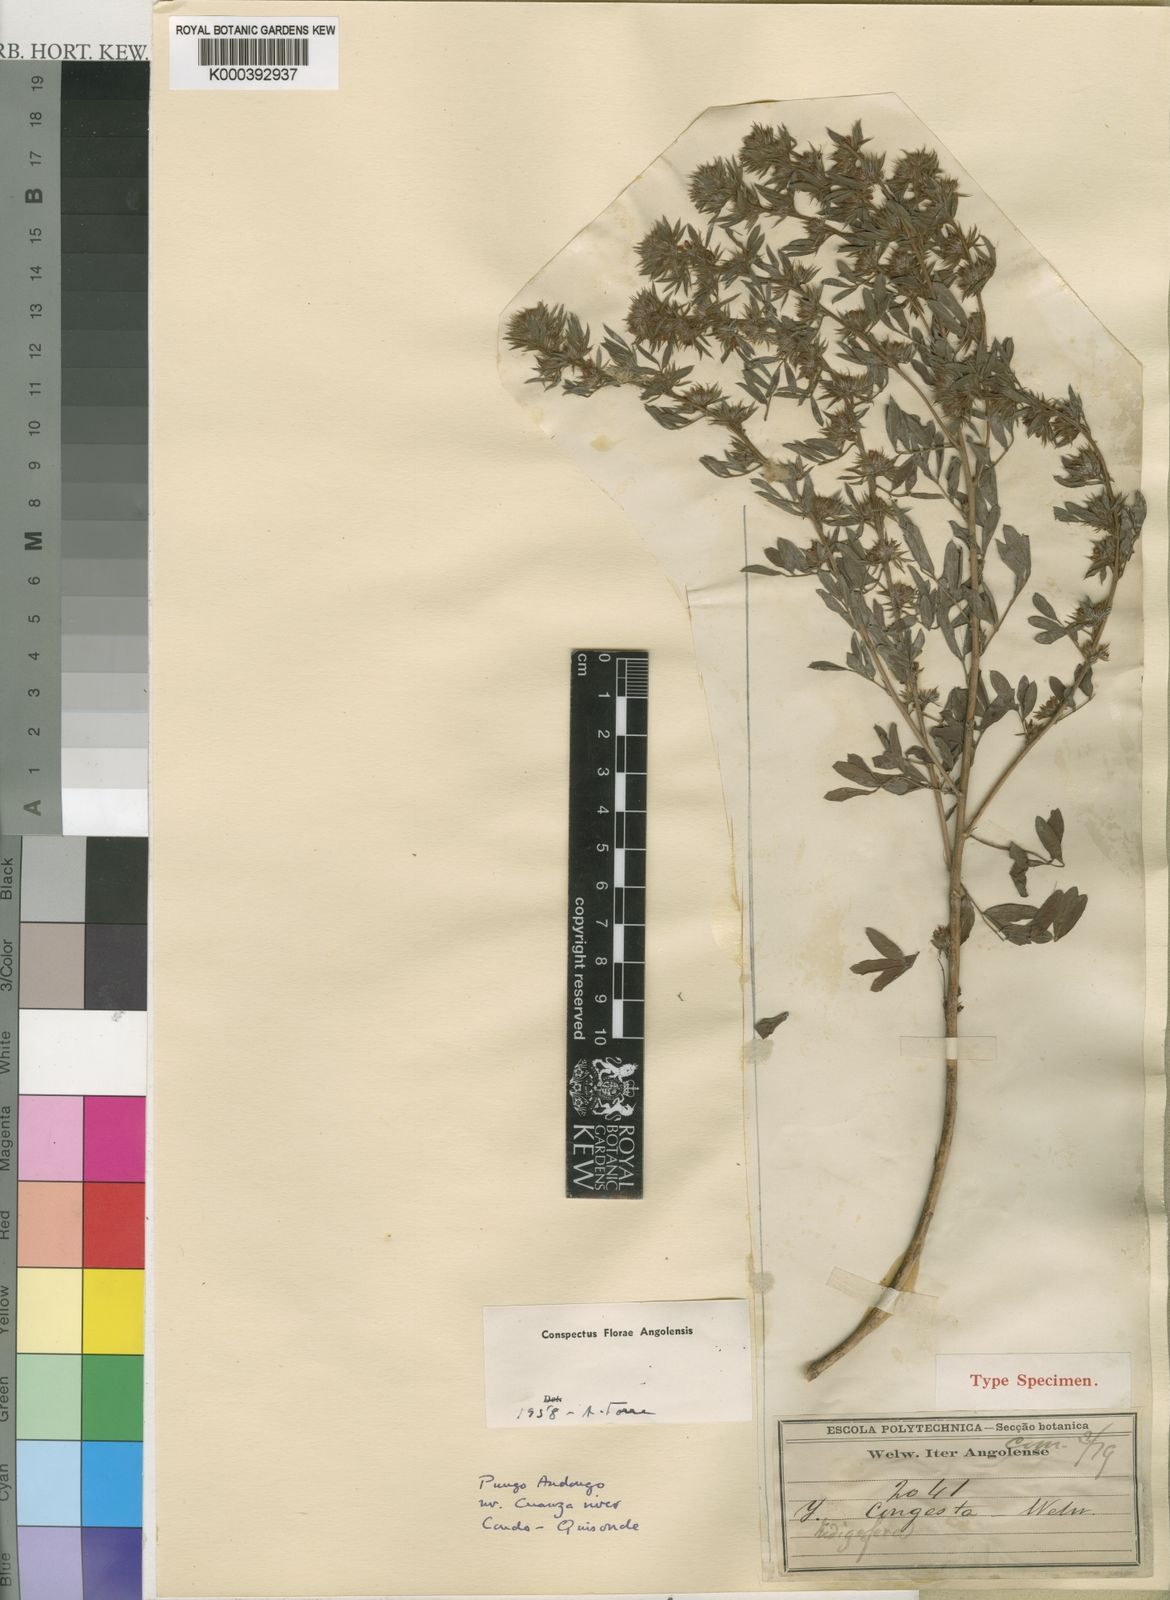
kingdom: Plantae
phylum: Tracheophyta
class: Magnoliopsida
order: Fabales
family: Fabaceae
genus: Indigofera
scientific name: Indigofera congesta
